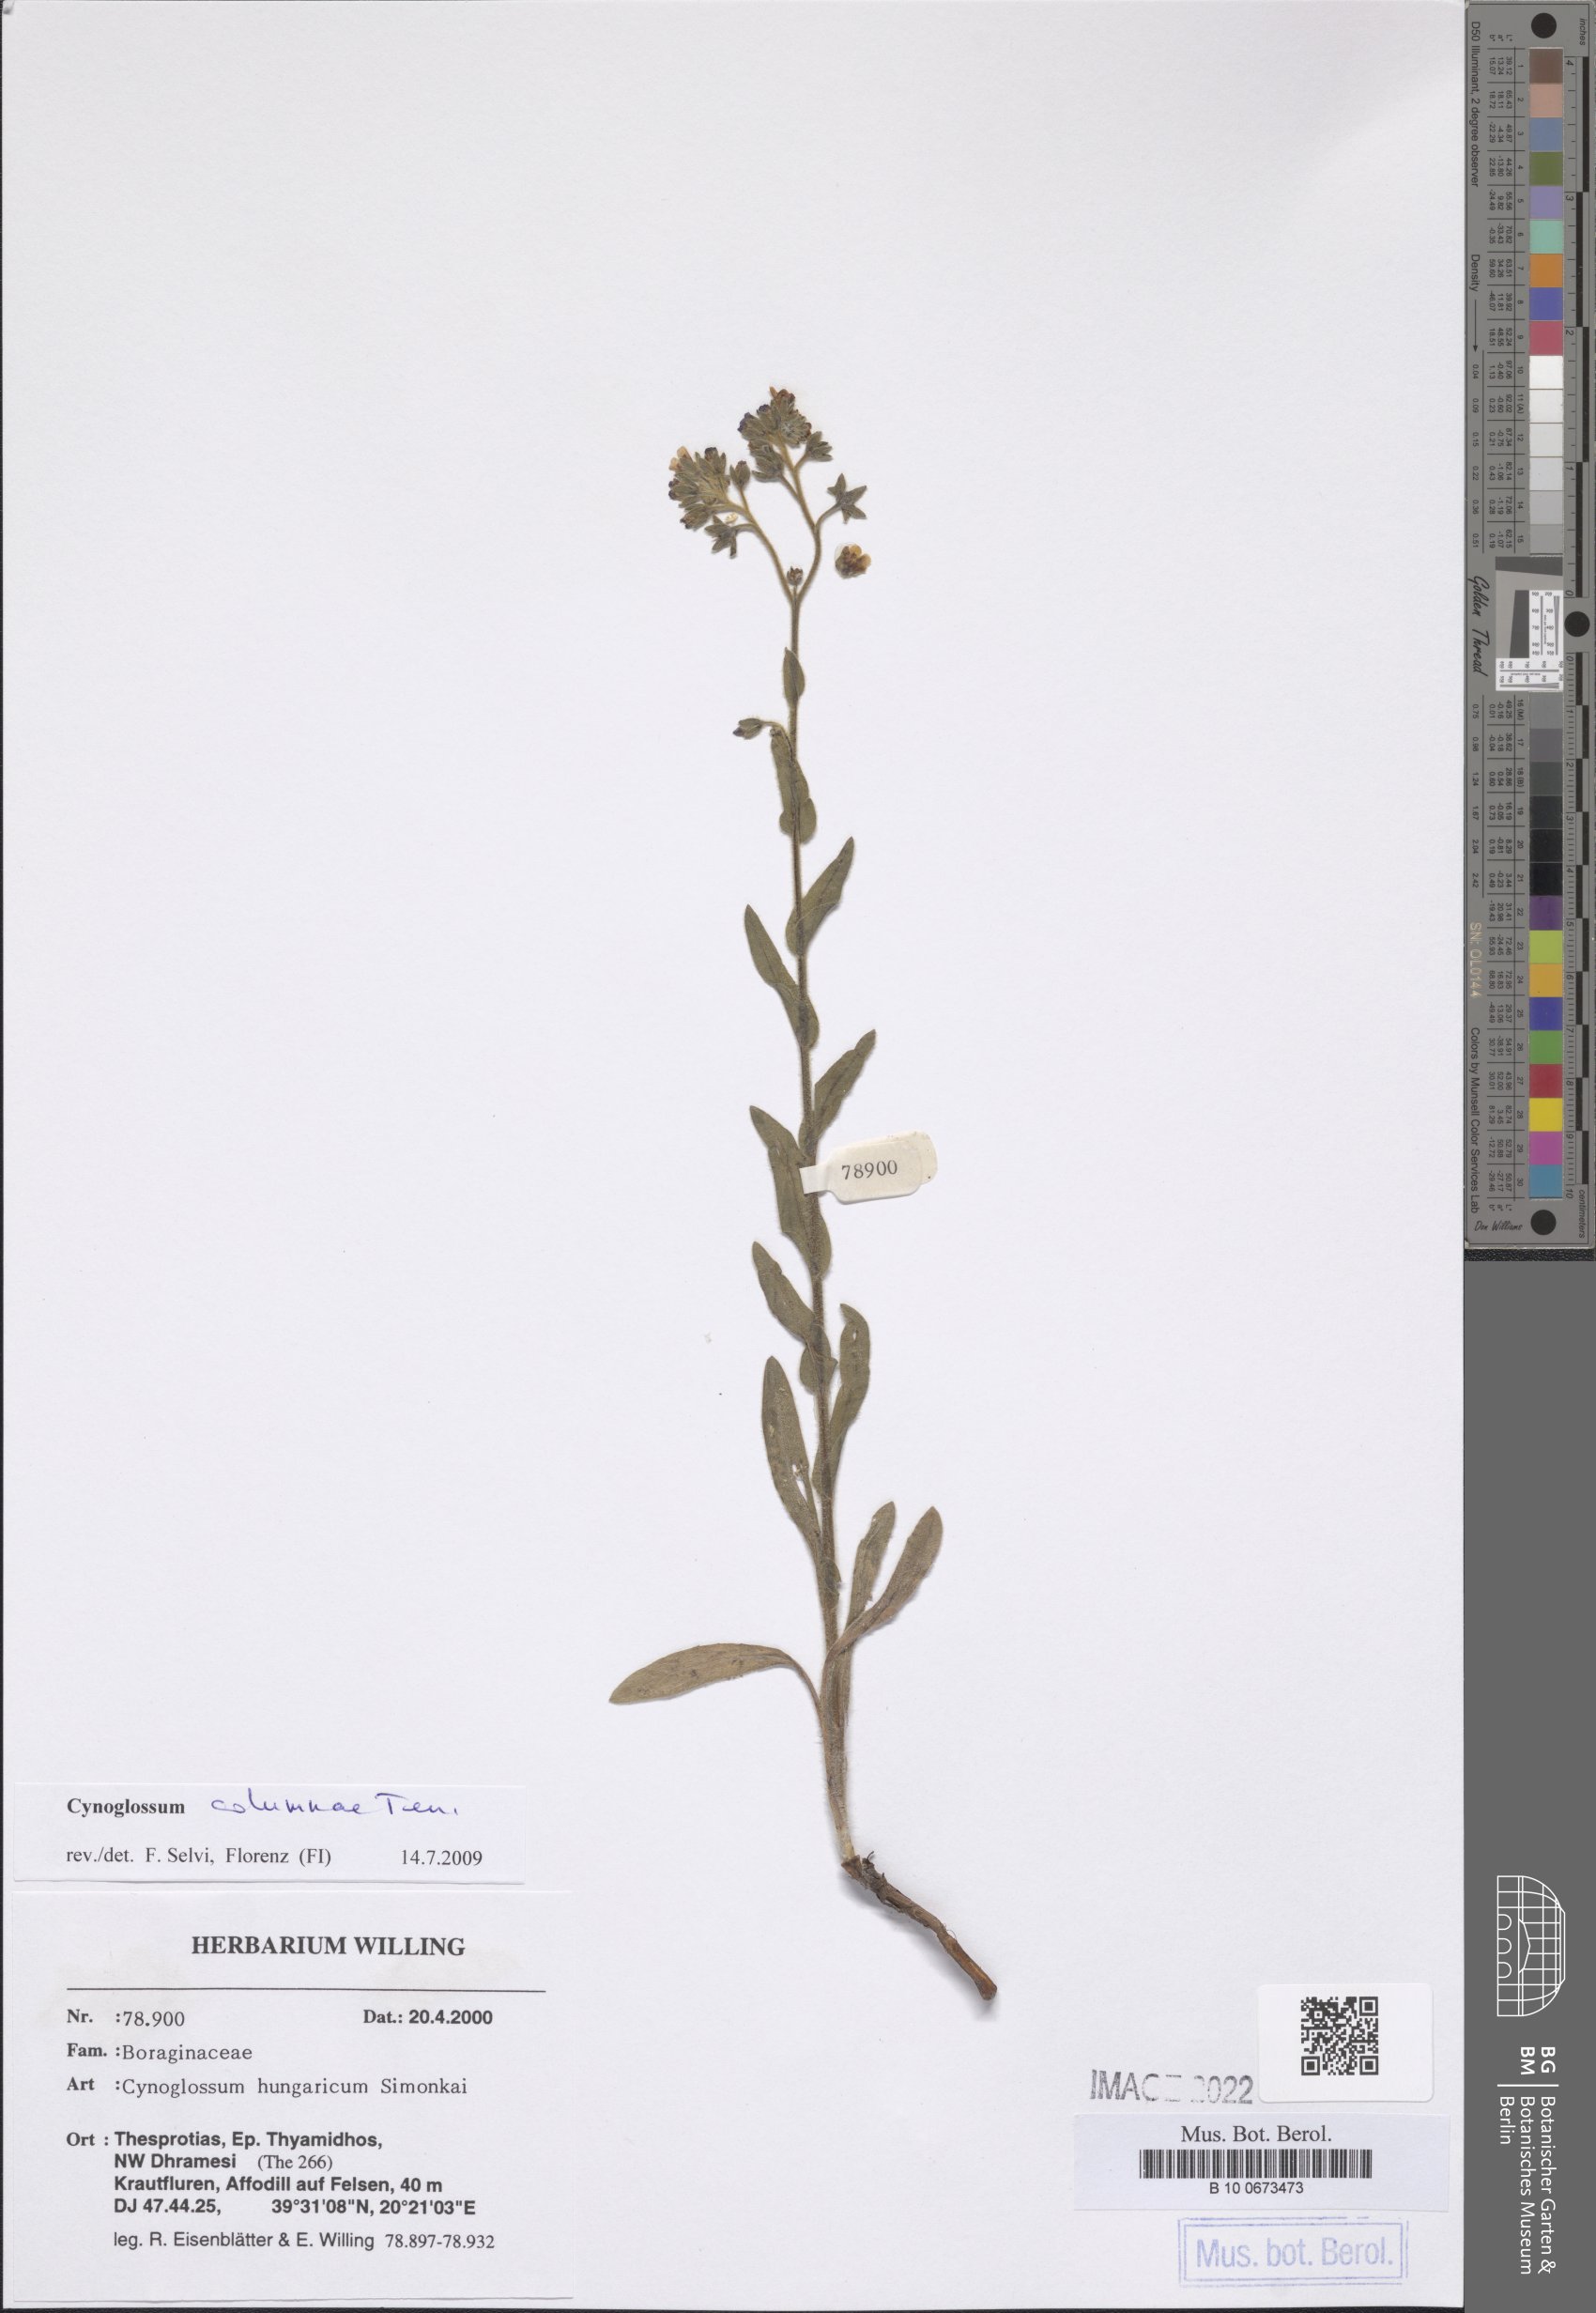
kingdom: Plantae
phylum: Tracheophyta
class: Magnoliopsida
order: Boraginales
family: Boraginaceae
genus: Rindera
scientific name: Rindera columnae
